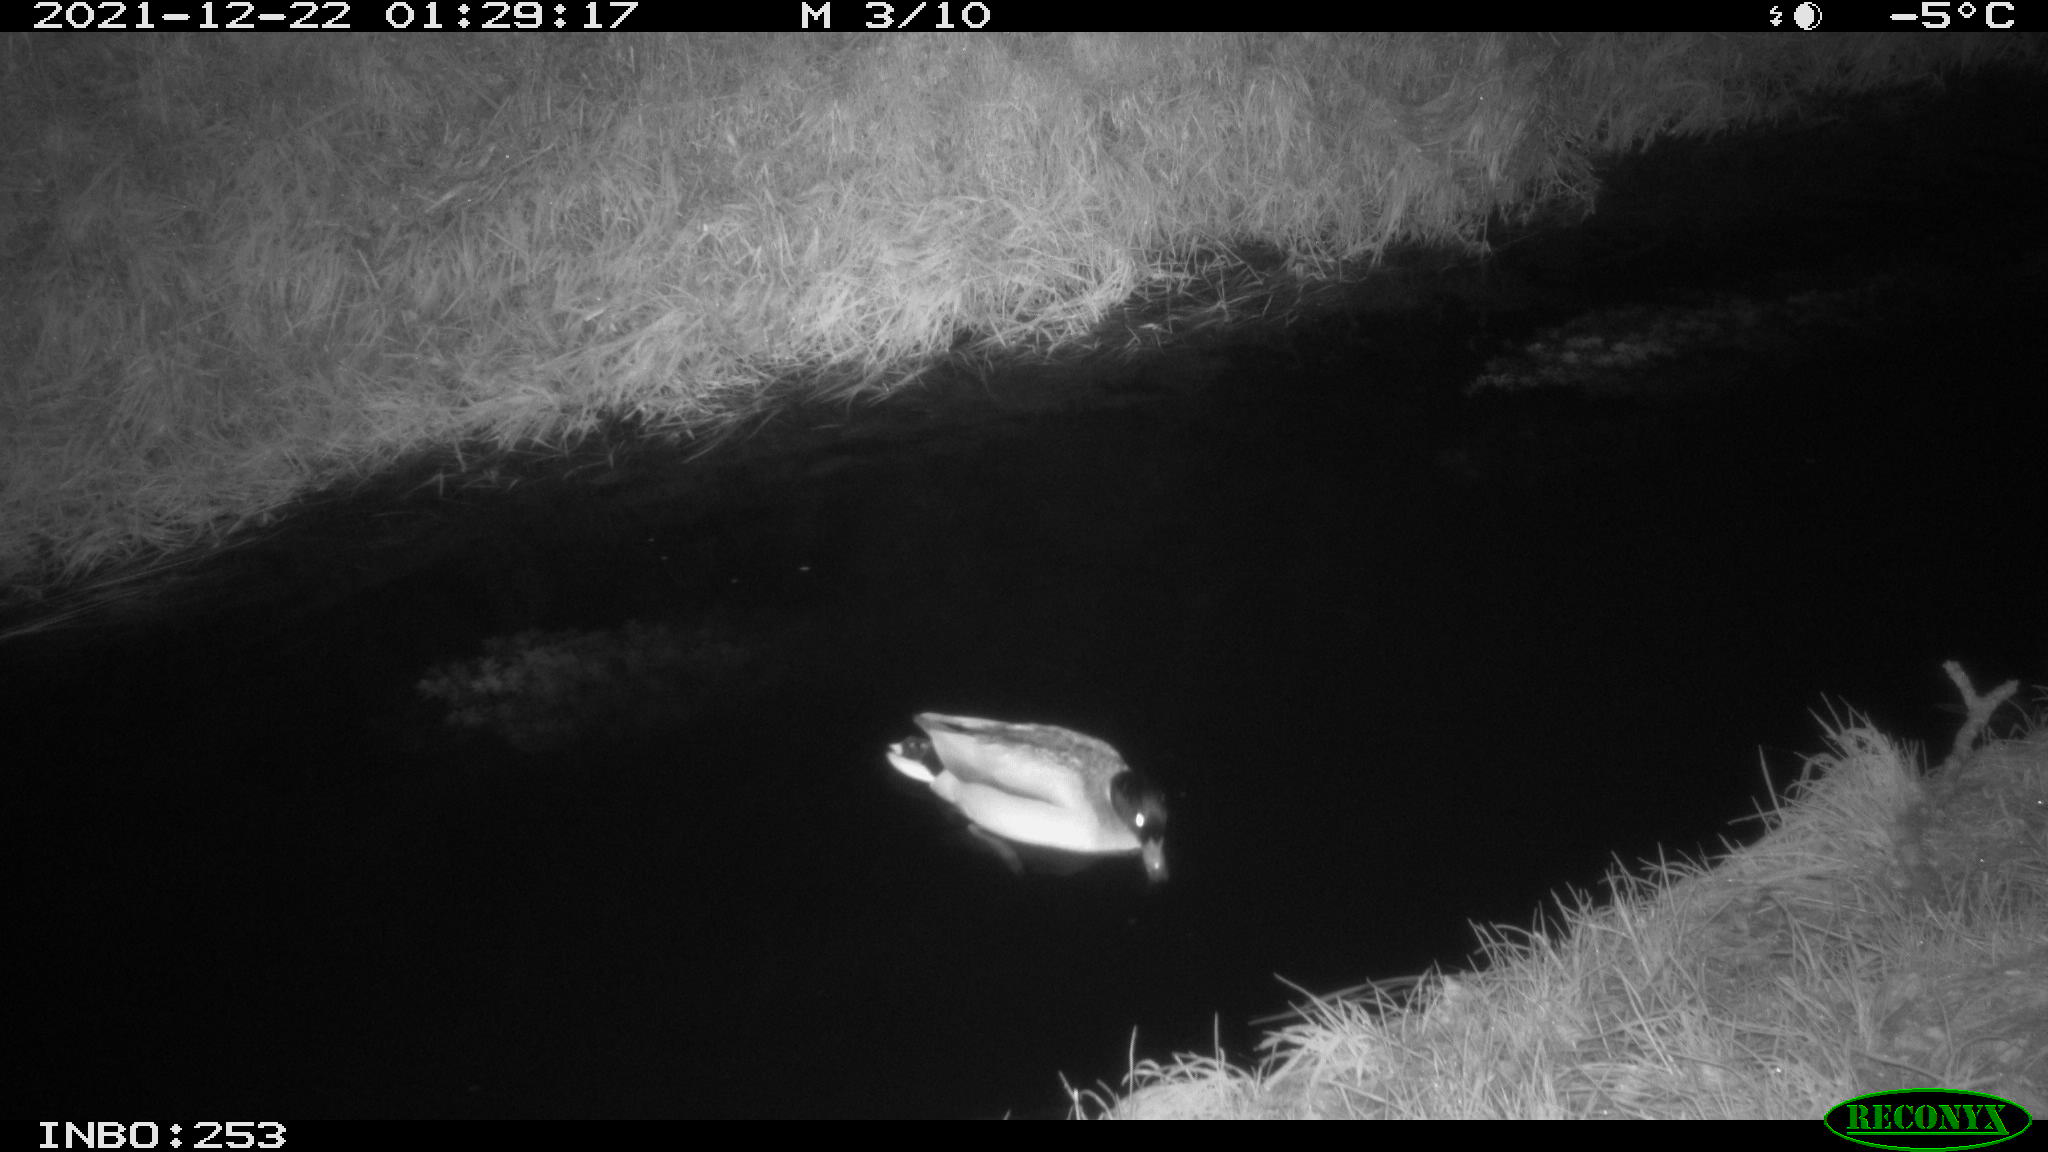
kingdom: Animalia
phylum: Chordata
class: Aves
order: Anseriformes
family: Anatidae
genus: Anas
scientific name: Anas
